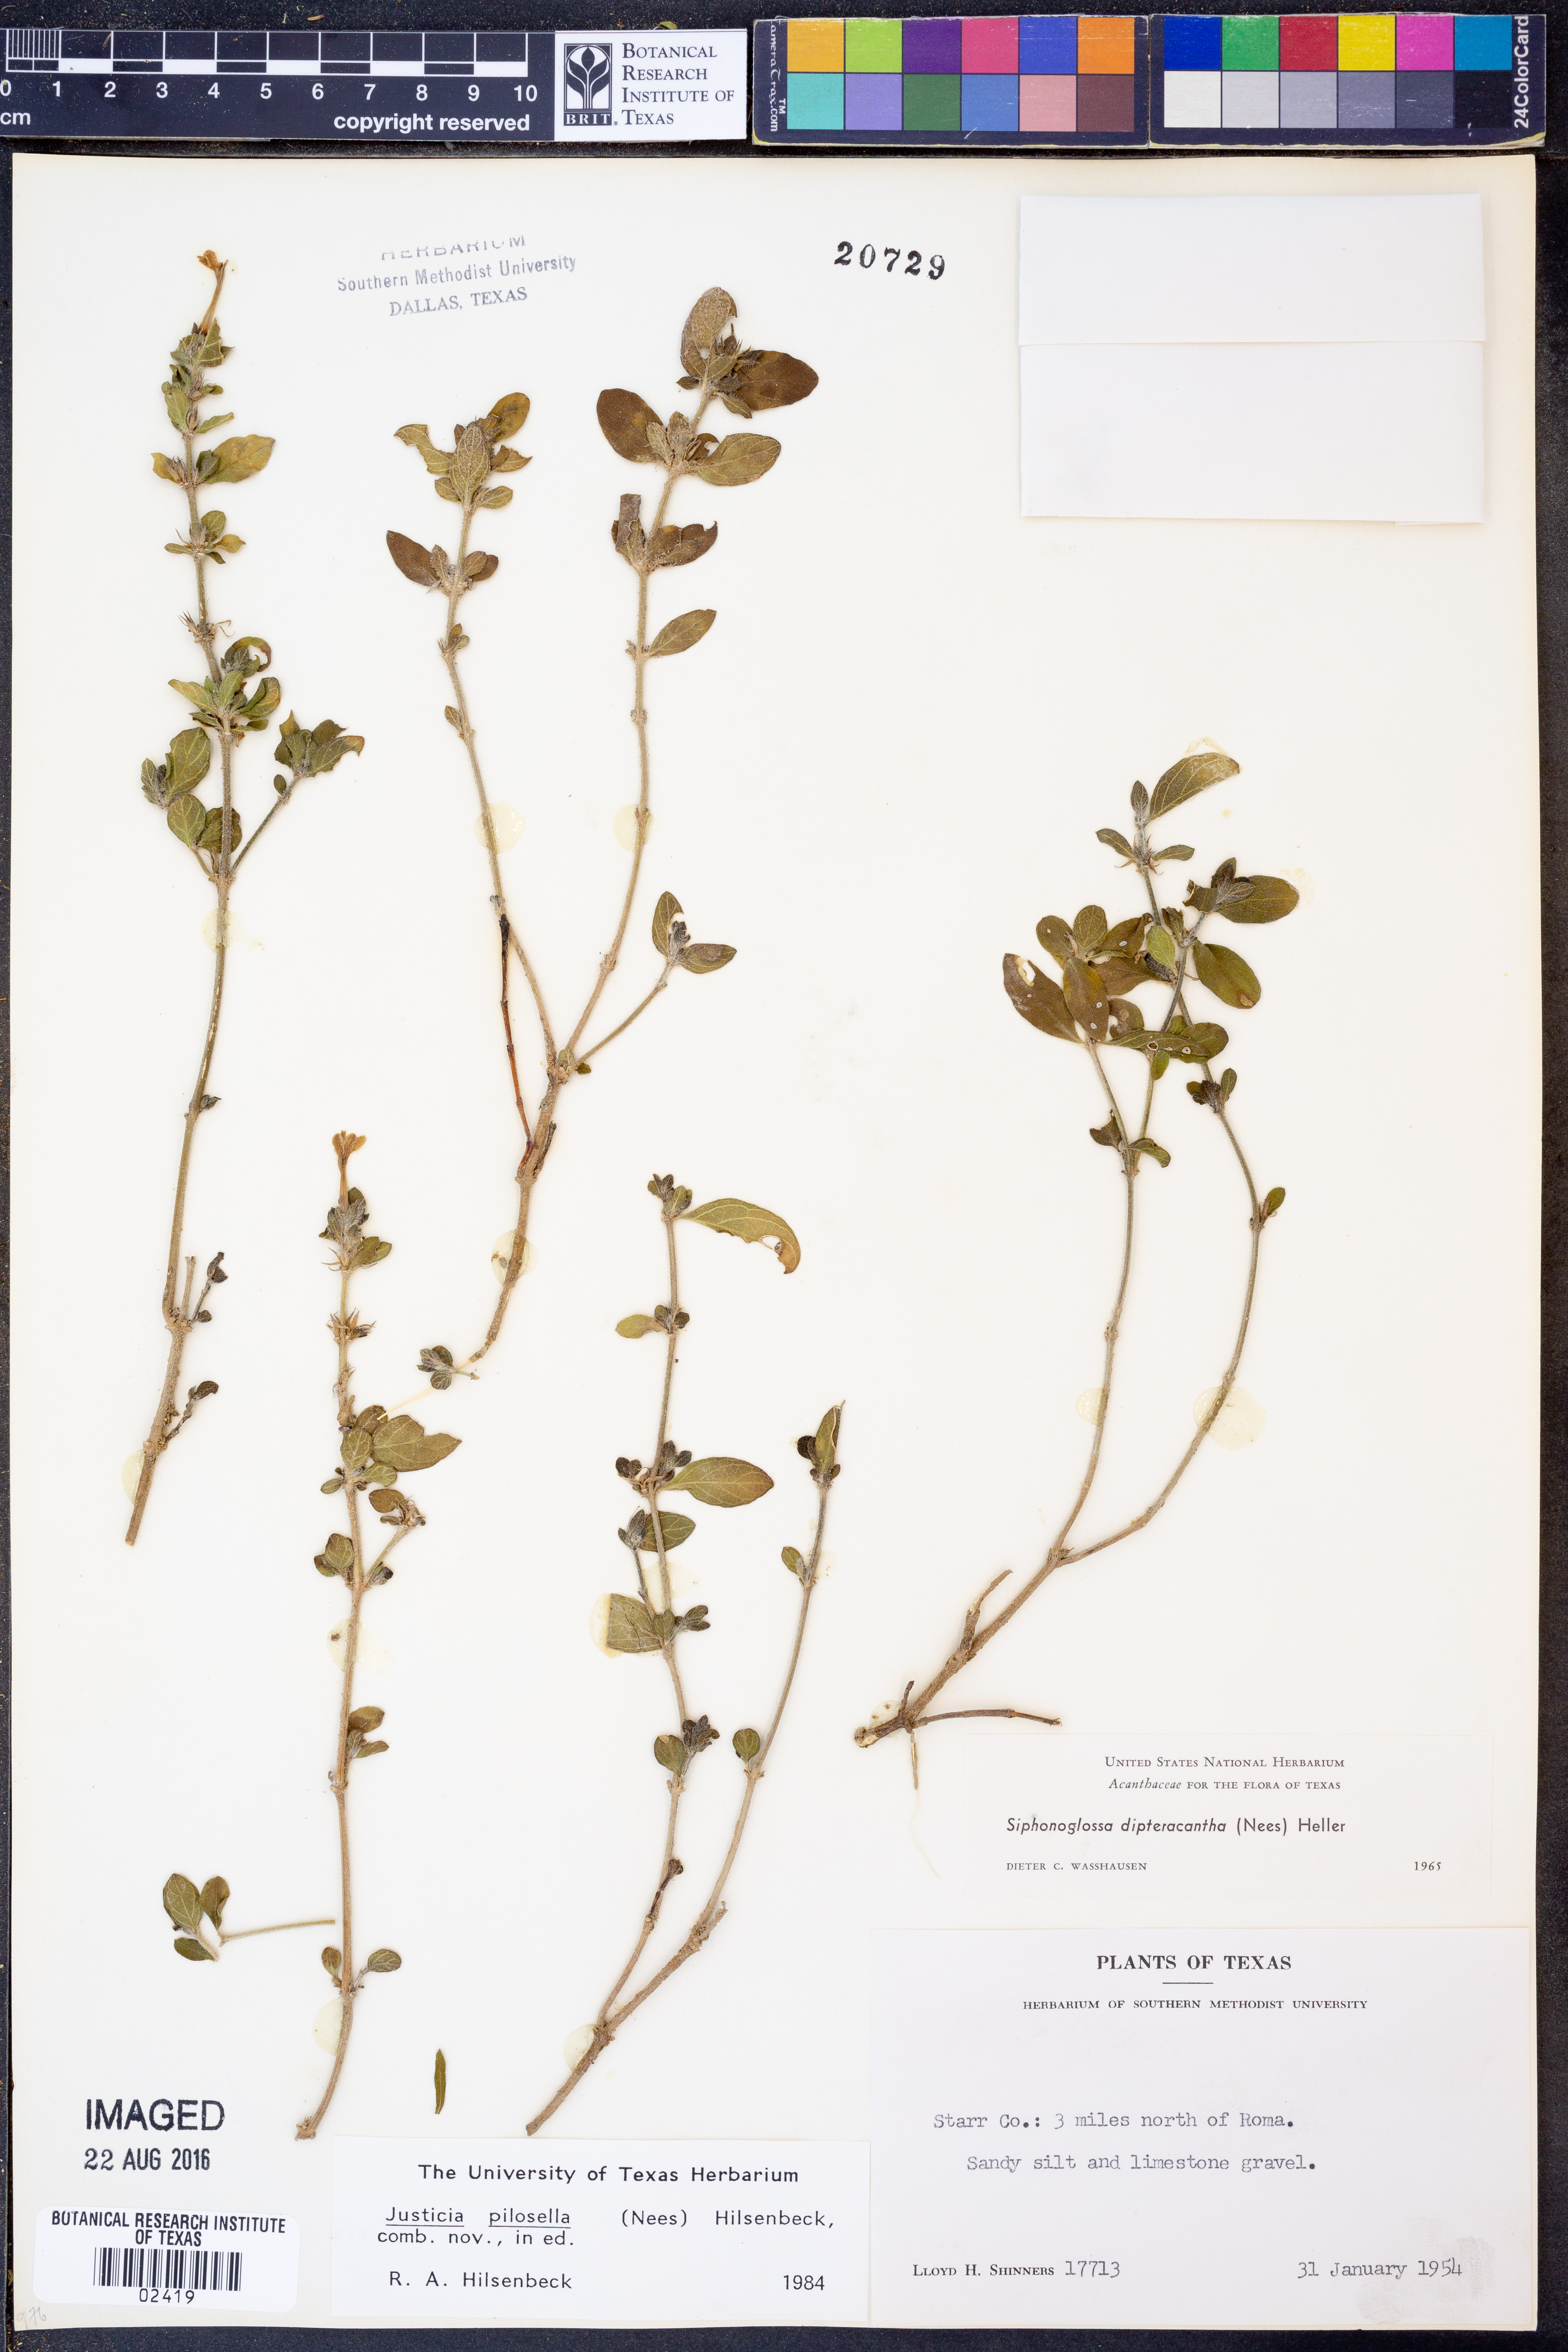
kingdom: Plantae
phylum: Tracheophyta
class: Magnoliopsida
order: Lamiales
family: Acanthaceae
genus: Justicia
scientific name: Justicia pilosella
